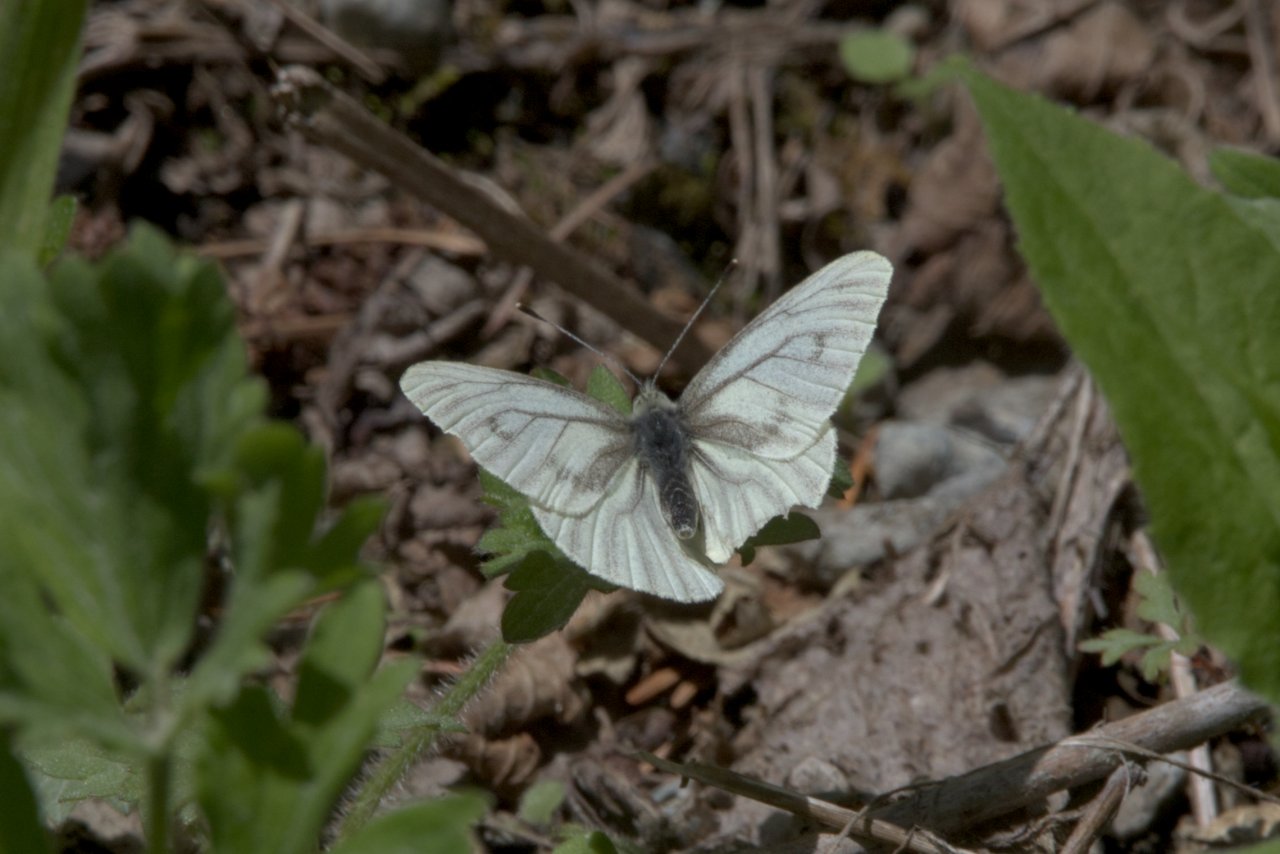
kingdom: Animalia
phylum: Arthropoda
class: Insecta
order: Lepidoptera
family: Pieridae
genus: Pieris
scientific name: Pieris marginalis
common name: Margined White
